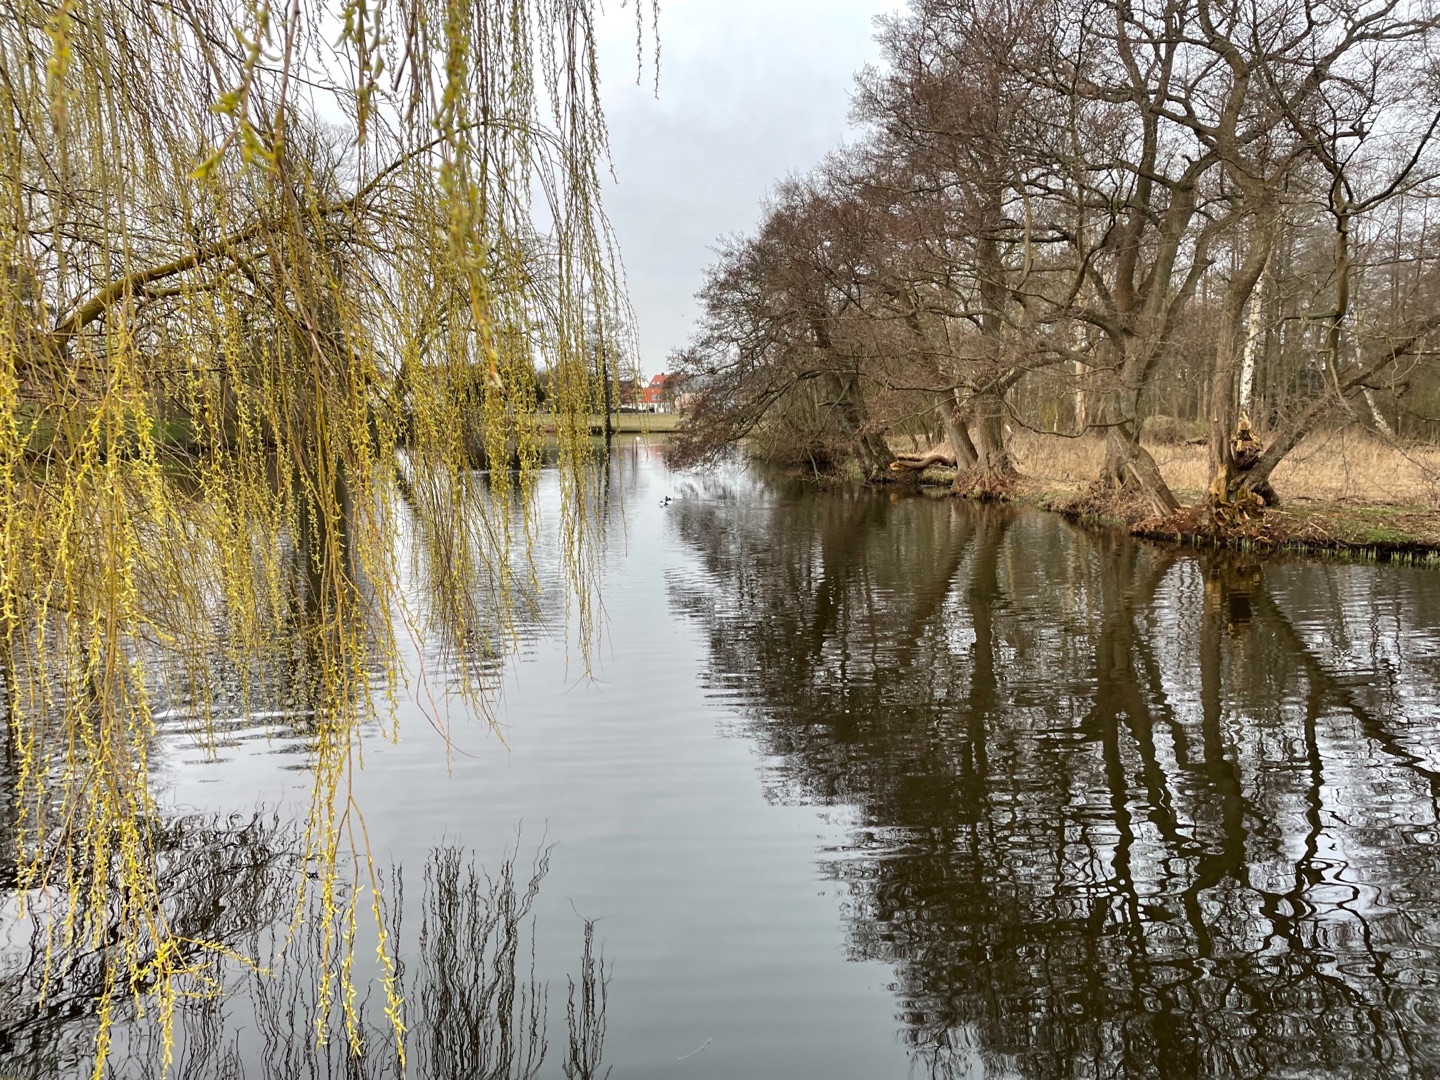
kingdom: Animalia
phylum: Chordata
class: Aves
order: Anseriformes
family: Anatidae
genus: Bucephala
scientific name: Bucephala clangula
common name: Hvinand
